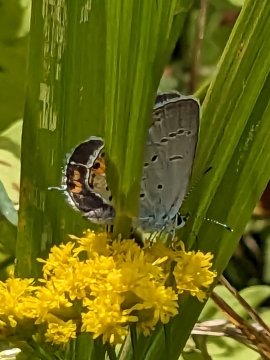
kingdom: Animalia
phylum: Arthropoda
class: Insecta
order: Lepidoptera
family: Lycaenidae
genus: Elkalyce
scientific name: Elkalyce comyntas
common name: Eastern Tailed-Blue
